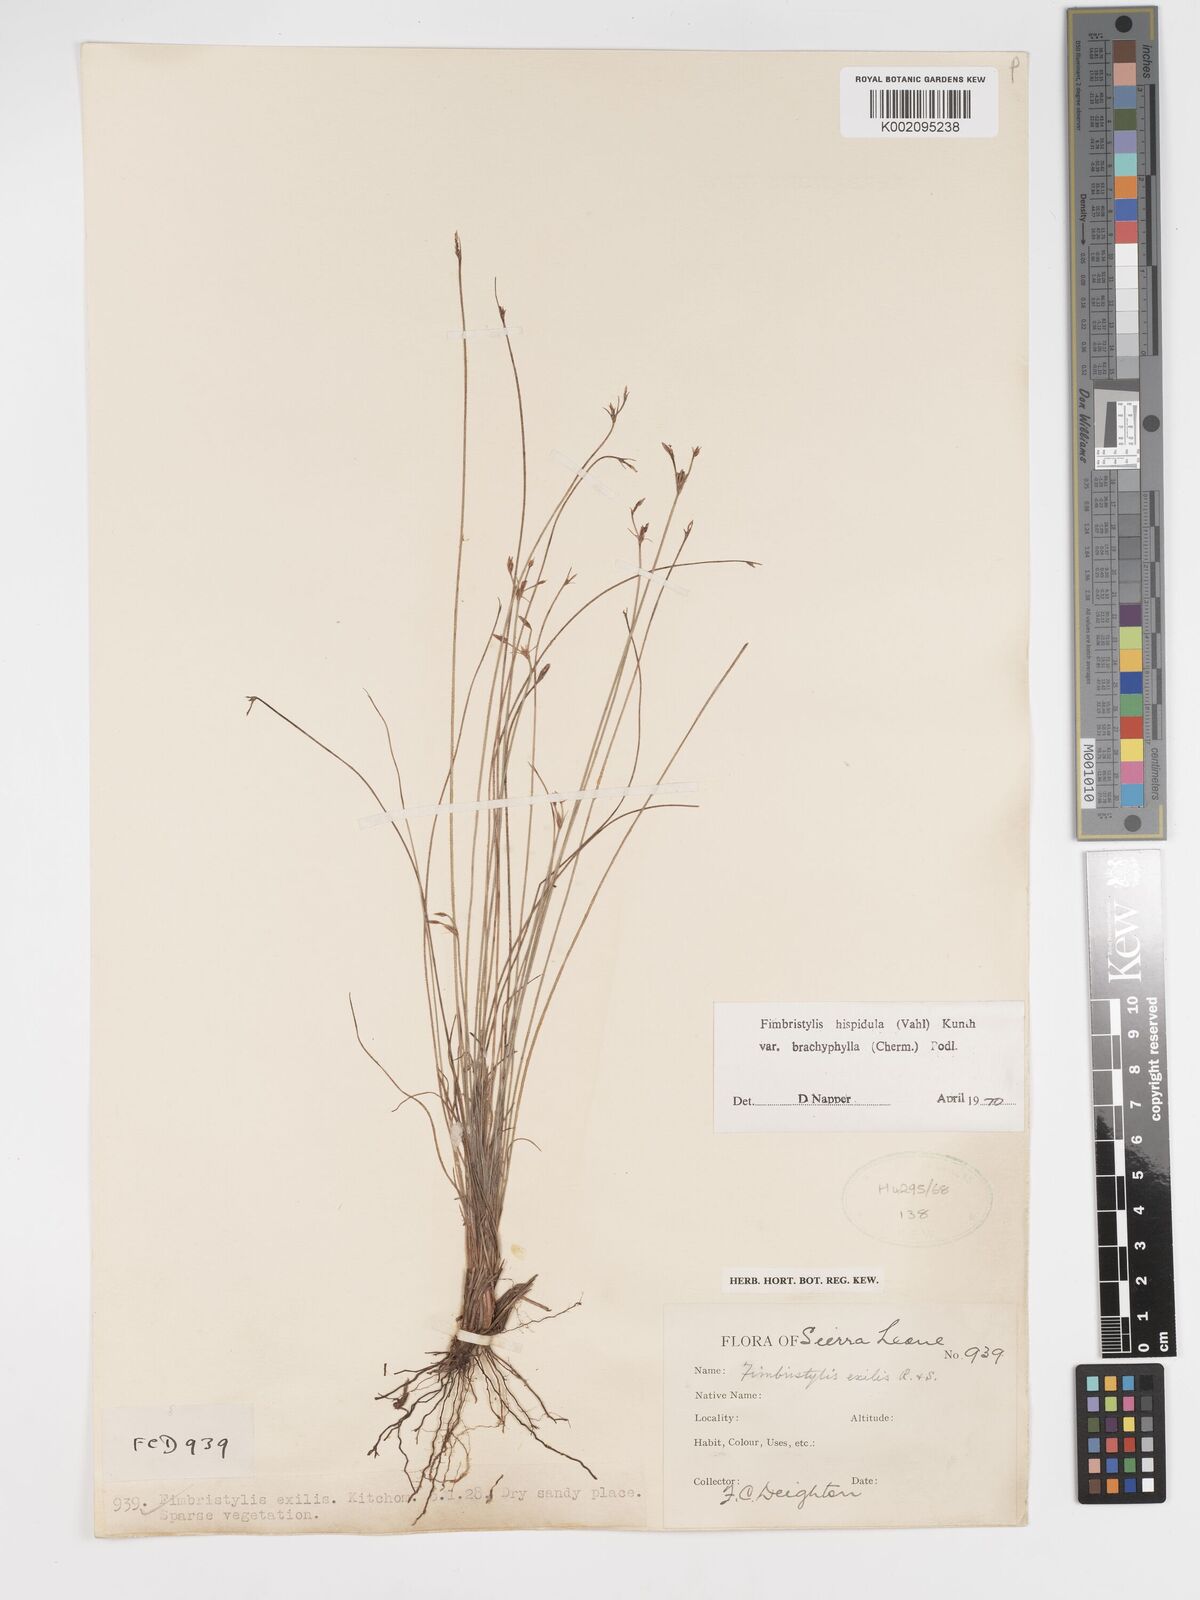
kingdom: Plantae
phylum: Tracheophyta
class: Liliopsida
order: Poales
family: Cyperaceae
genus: Bulbostylis
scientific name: Bulbostylis hispidula
